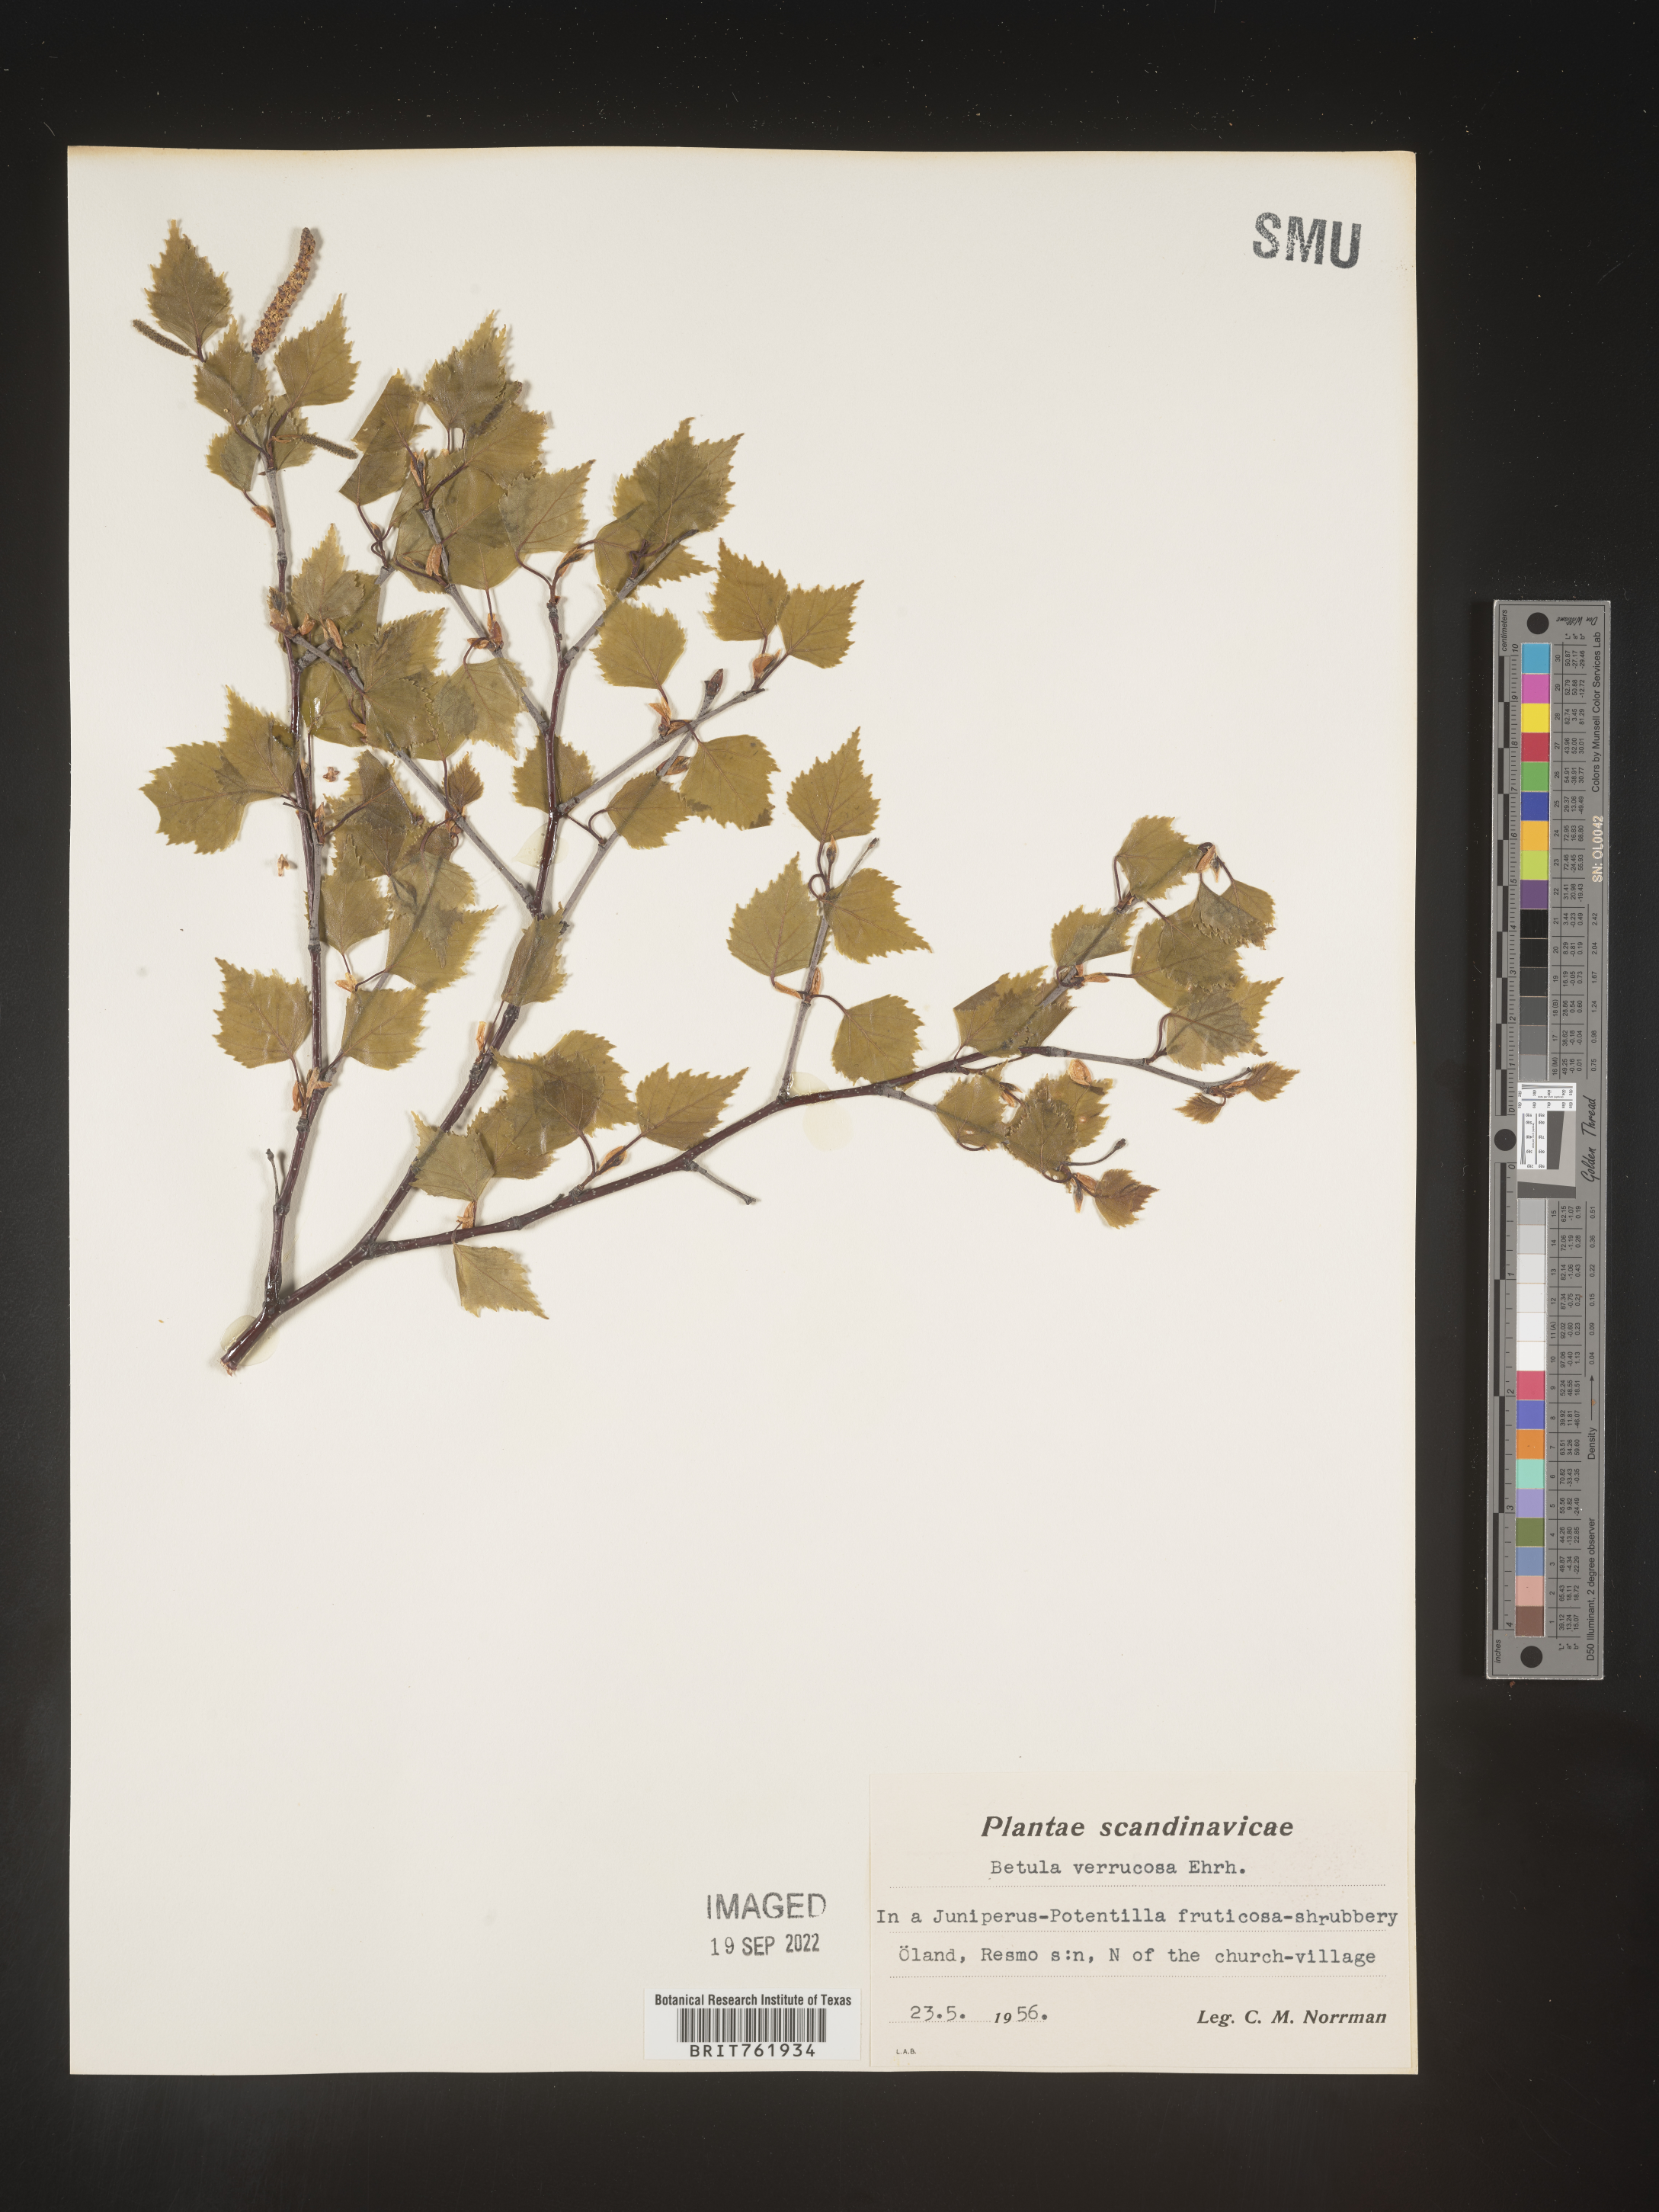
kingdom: Plantae
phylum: Tracheophyta
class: Magnoliopsida
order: Fagales
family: Betulaceae
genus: Betula
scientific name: Betula
